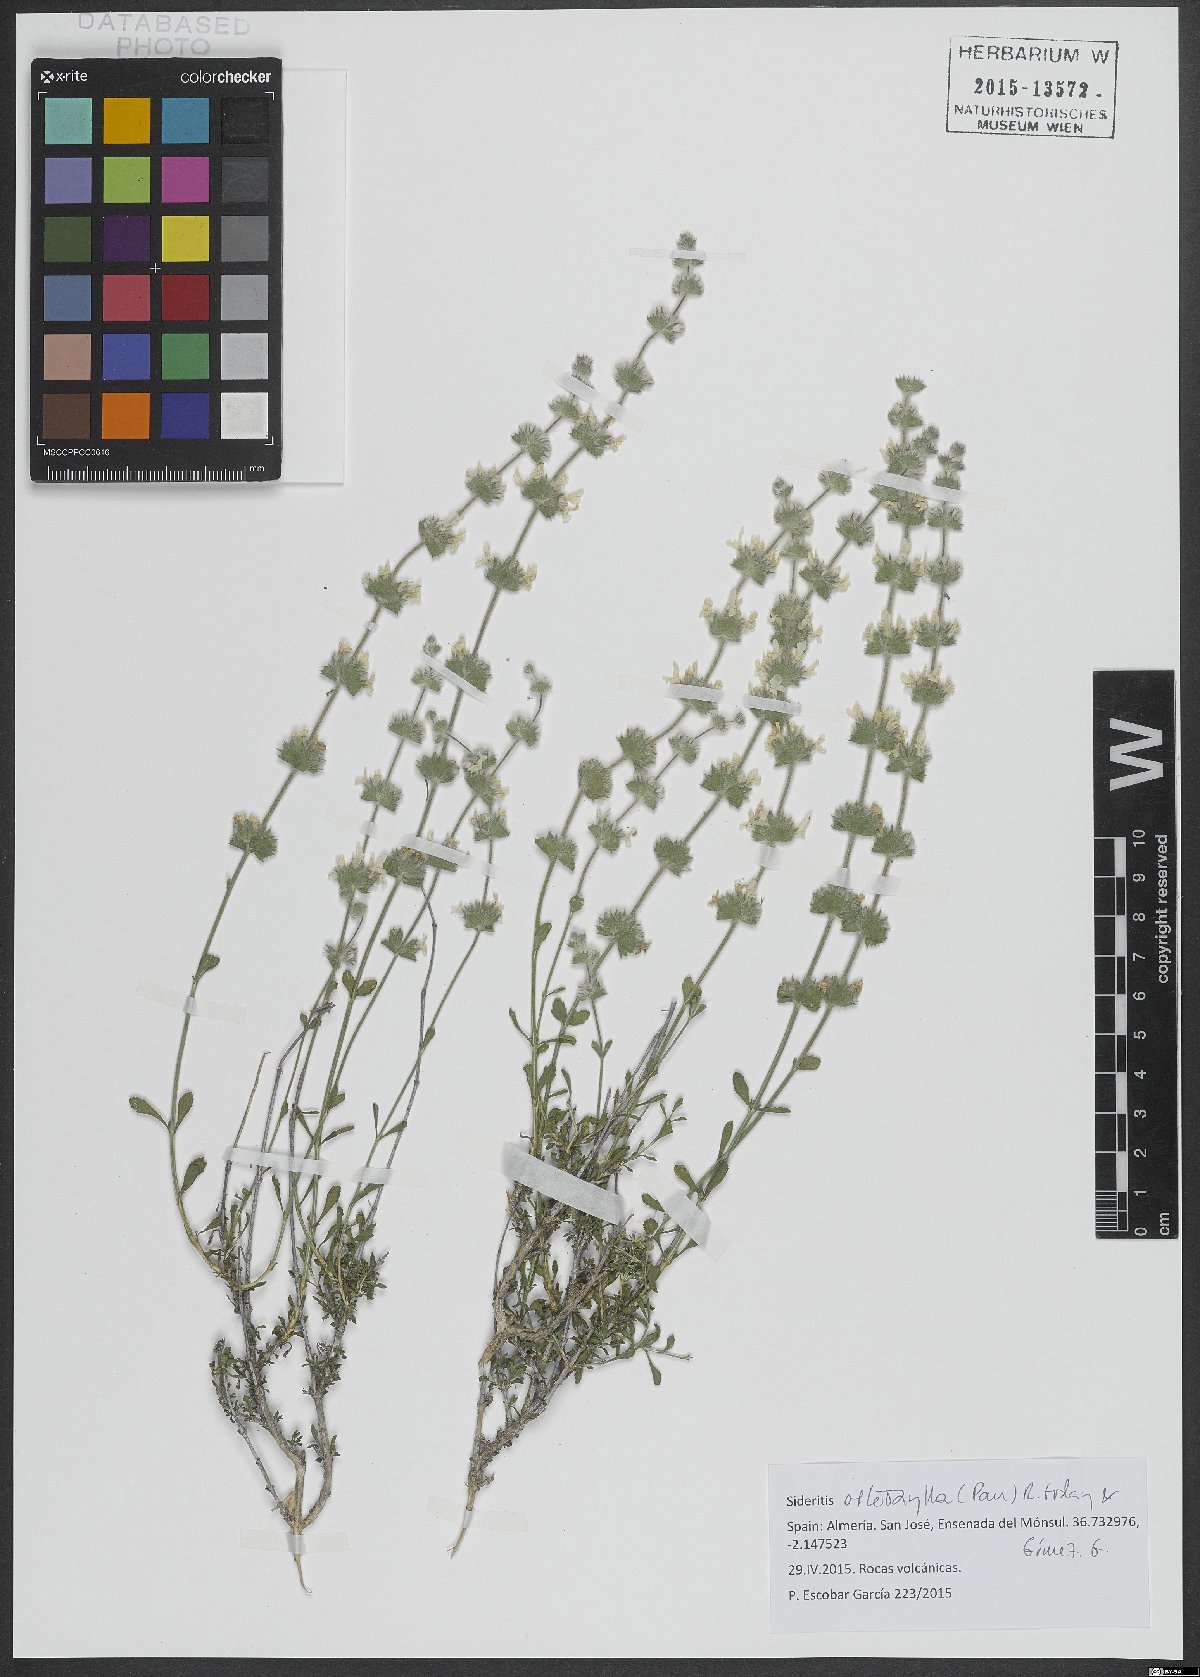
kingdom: Plantae
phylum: Tracheophyta
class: Magnoliopsida
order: Lamiales
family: Lamiaceae
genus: Sideritis
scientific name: Sideritis osteoxylla
